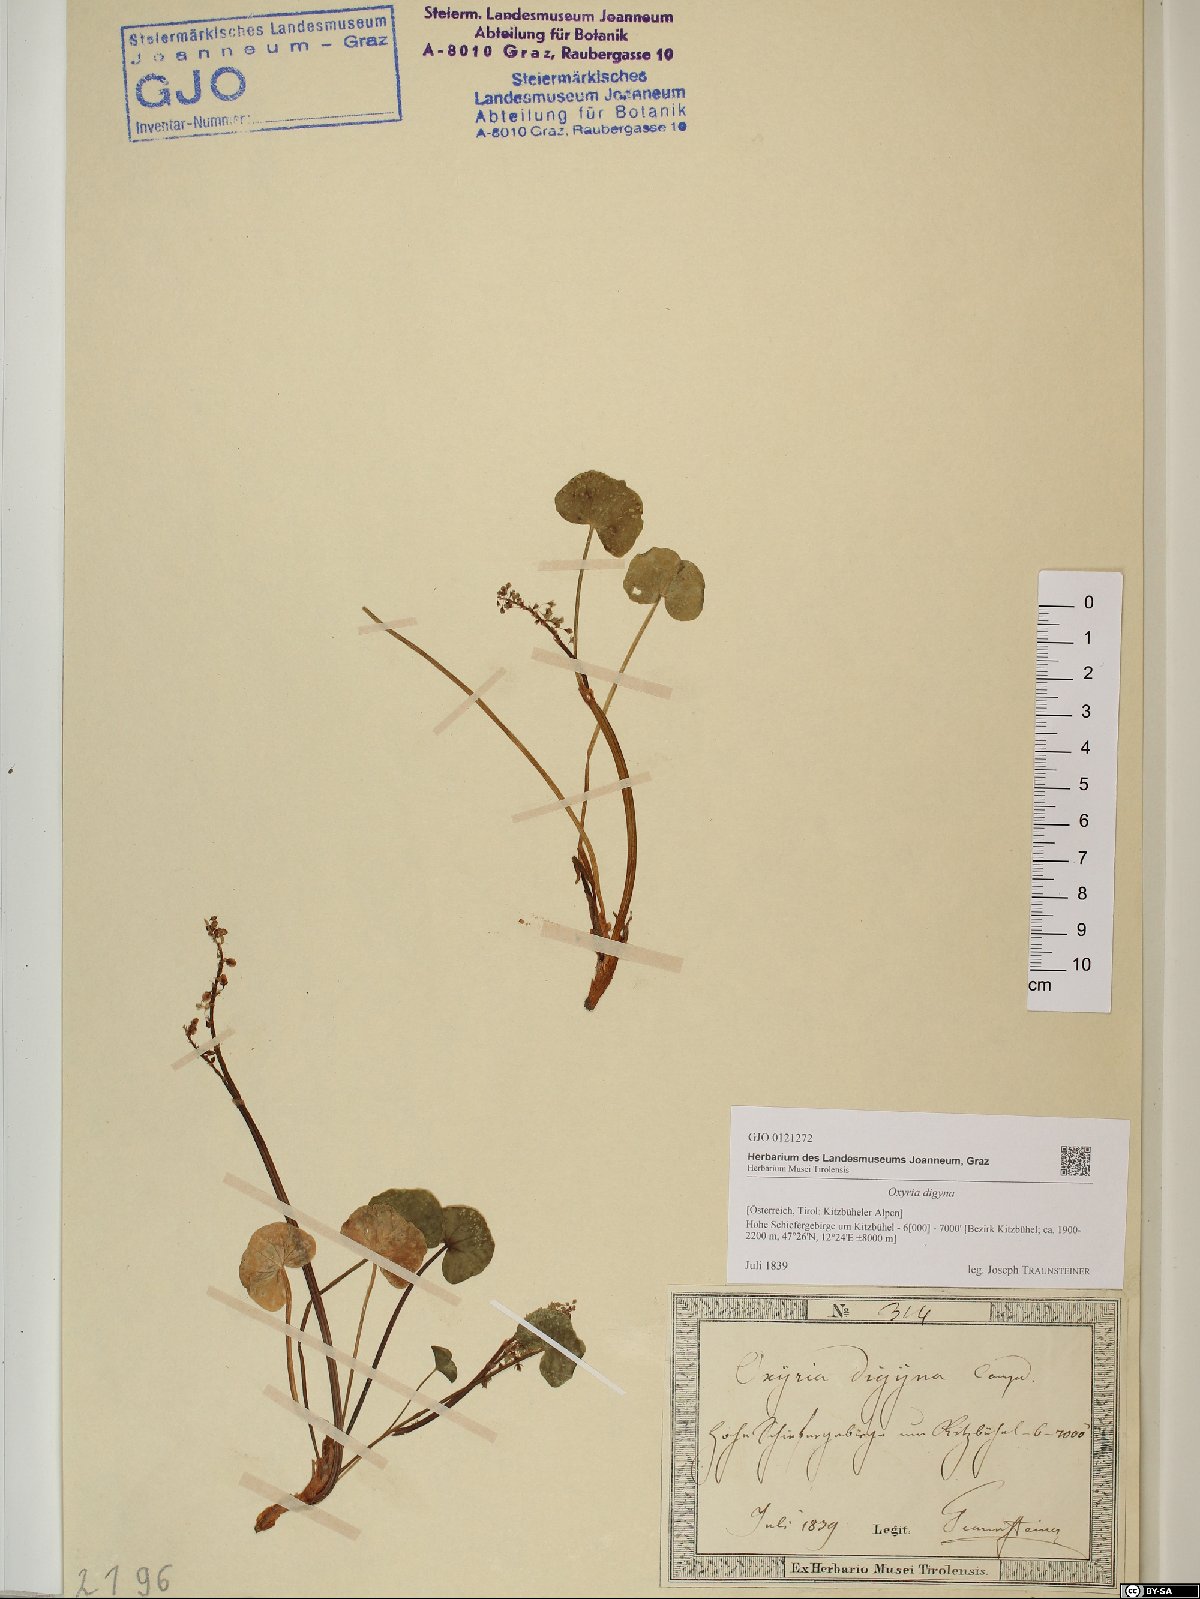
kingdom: Plantae
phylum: Tracheophyta
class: Magnoliopsida
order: Caryophyllales
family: Polygonaceae
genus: Oxyria
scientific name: Oxyria digyna
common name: Alpine mountain-sorrel
